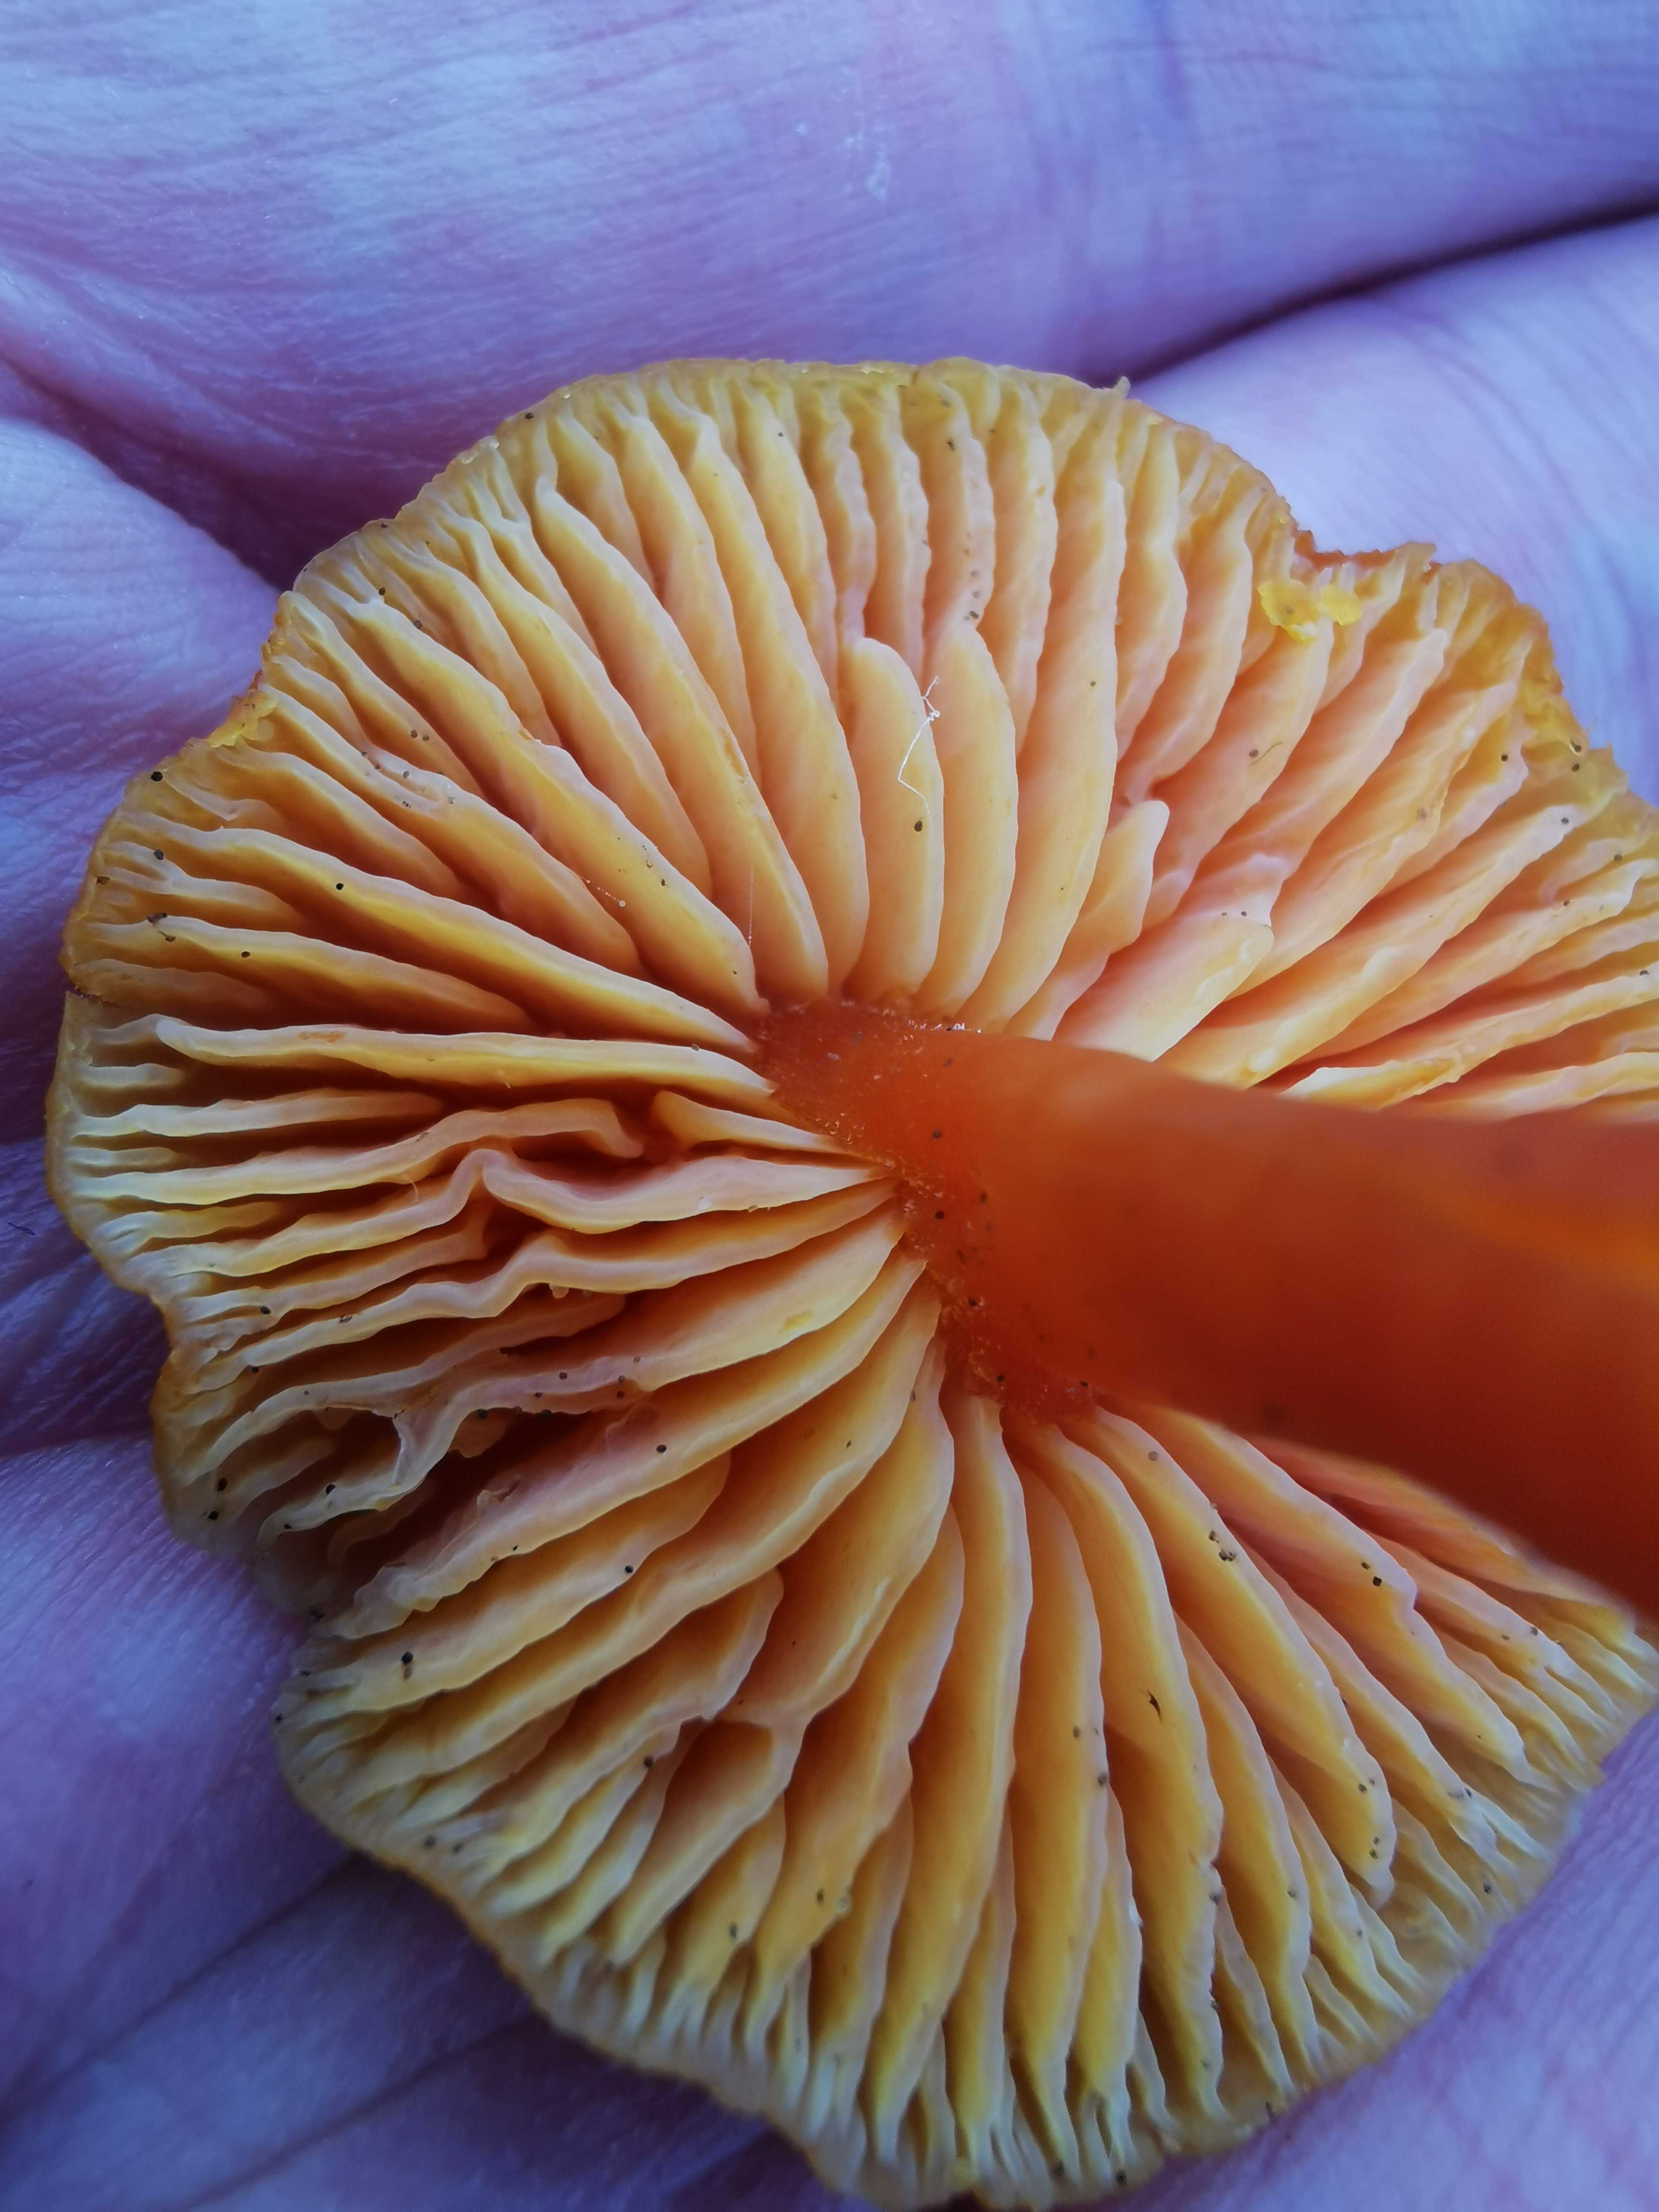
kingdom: Fungi
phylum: Basidiomycota
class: Agaricomycetes
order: Agaricales
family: Hygrophoraceae
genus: Hygrocybe
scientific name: Hygrocybe miniata
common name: mønje-vokshat
